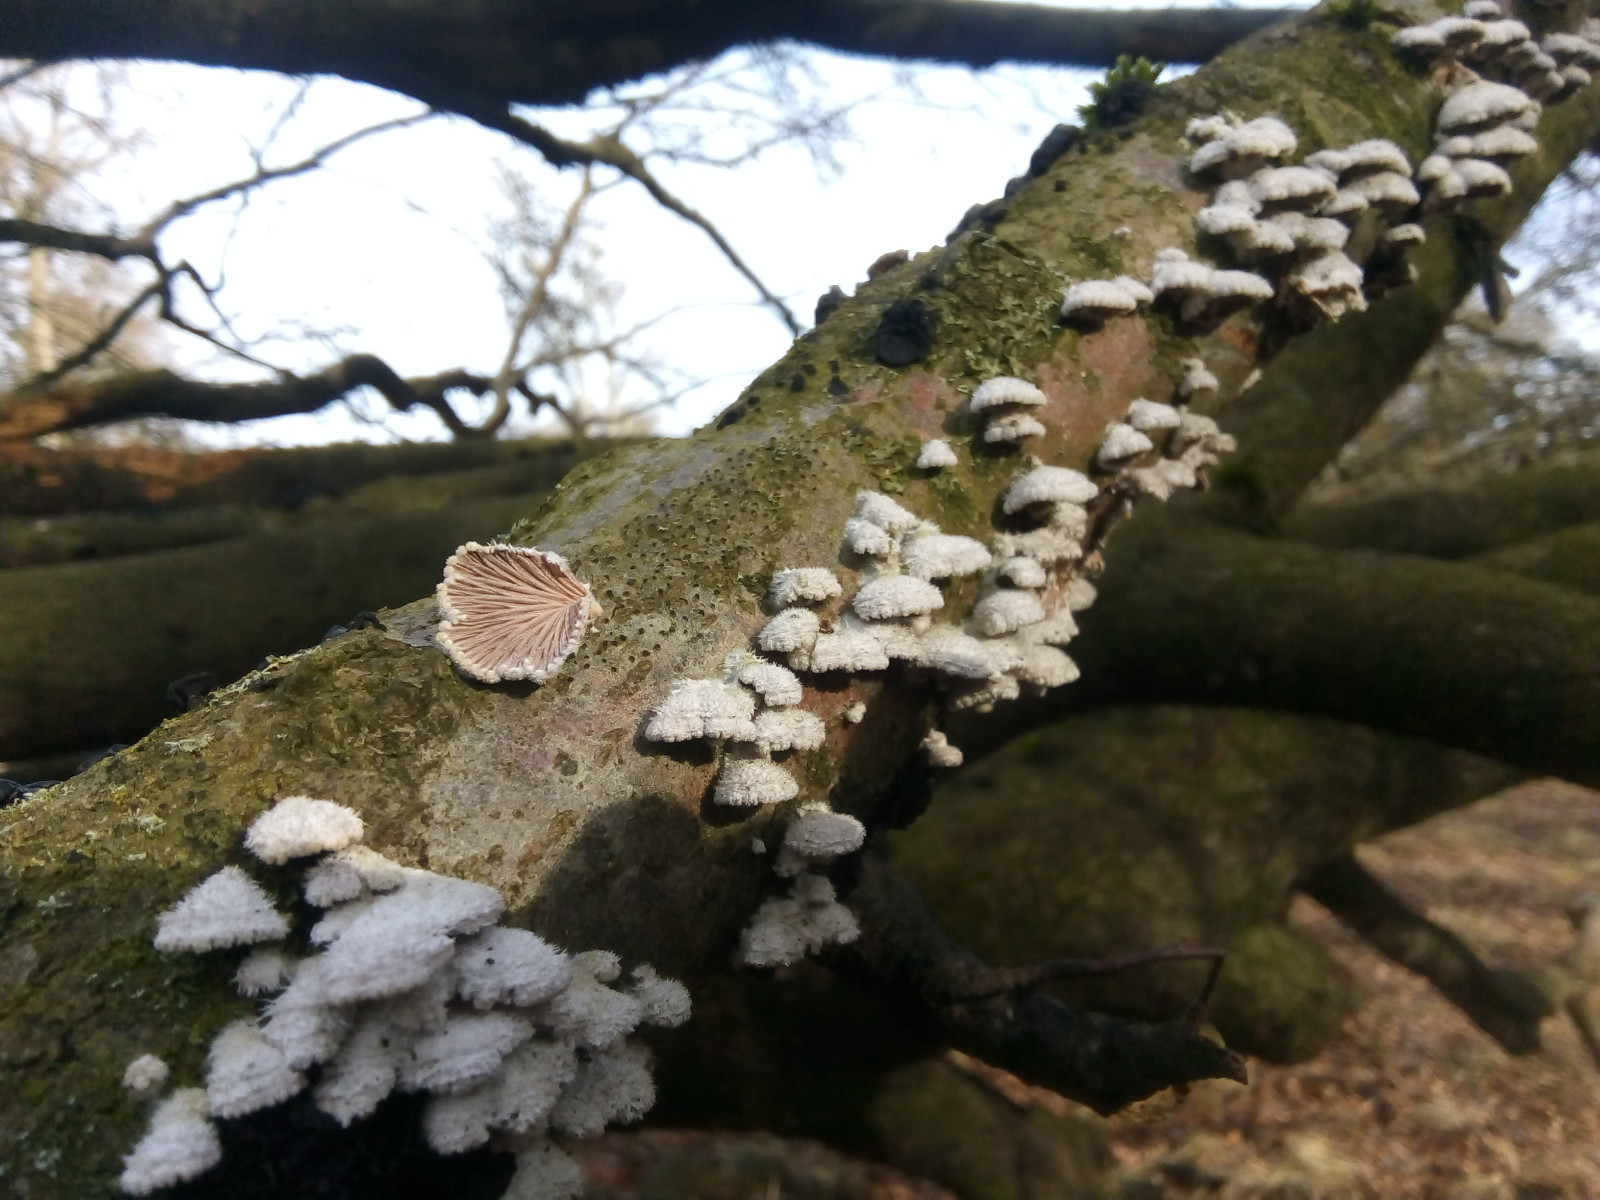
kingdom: Fungi
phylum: Basidiomycota
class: Agaricomycetes
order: Agaricales
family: Schizophyllaceae
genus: Schizophyllum
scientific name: Schizophyllum commune
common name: kløvblad
